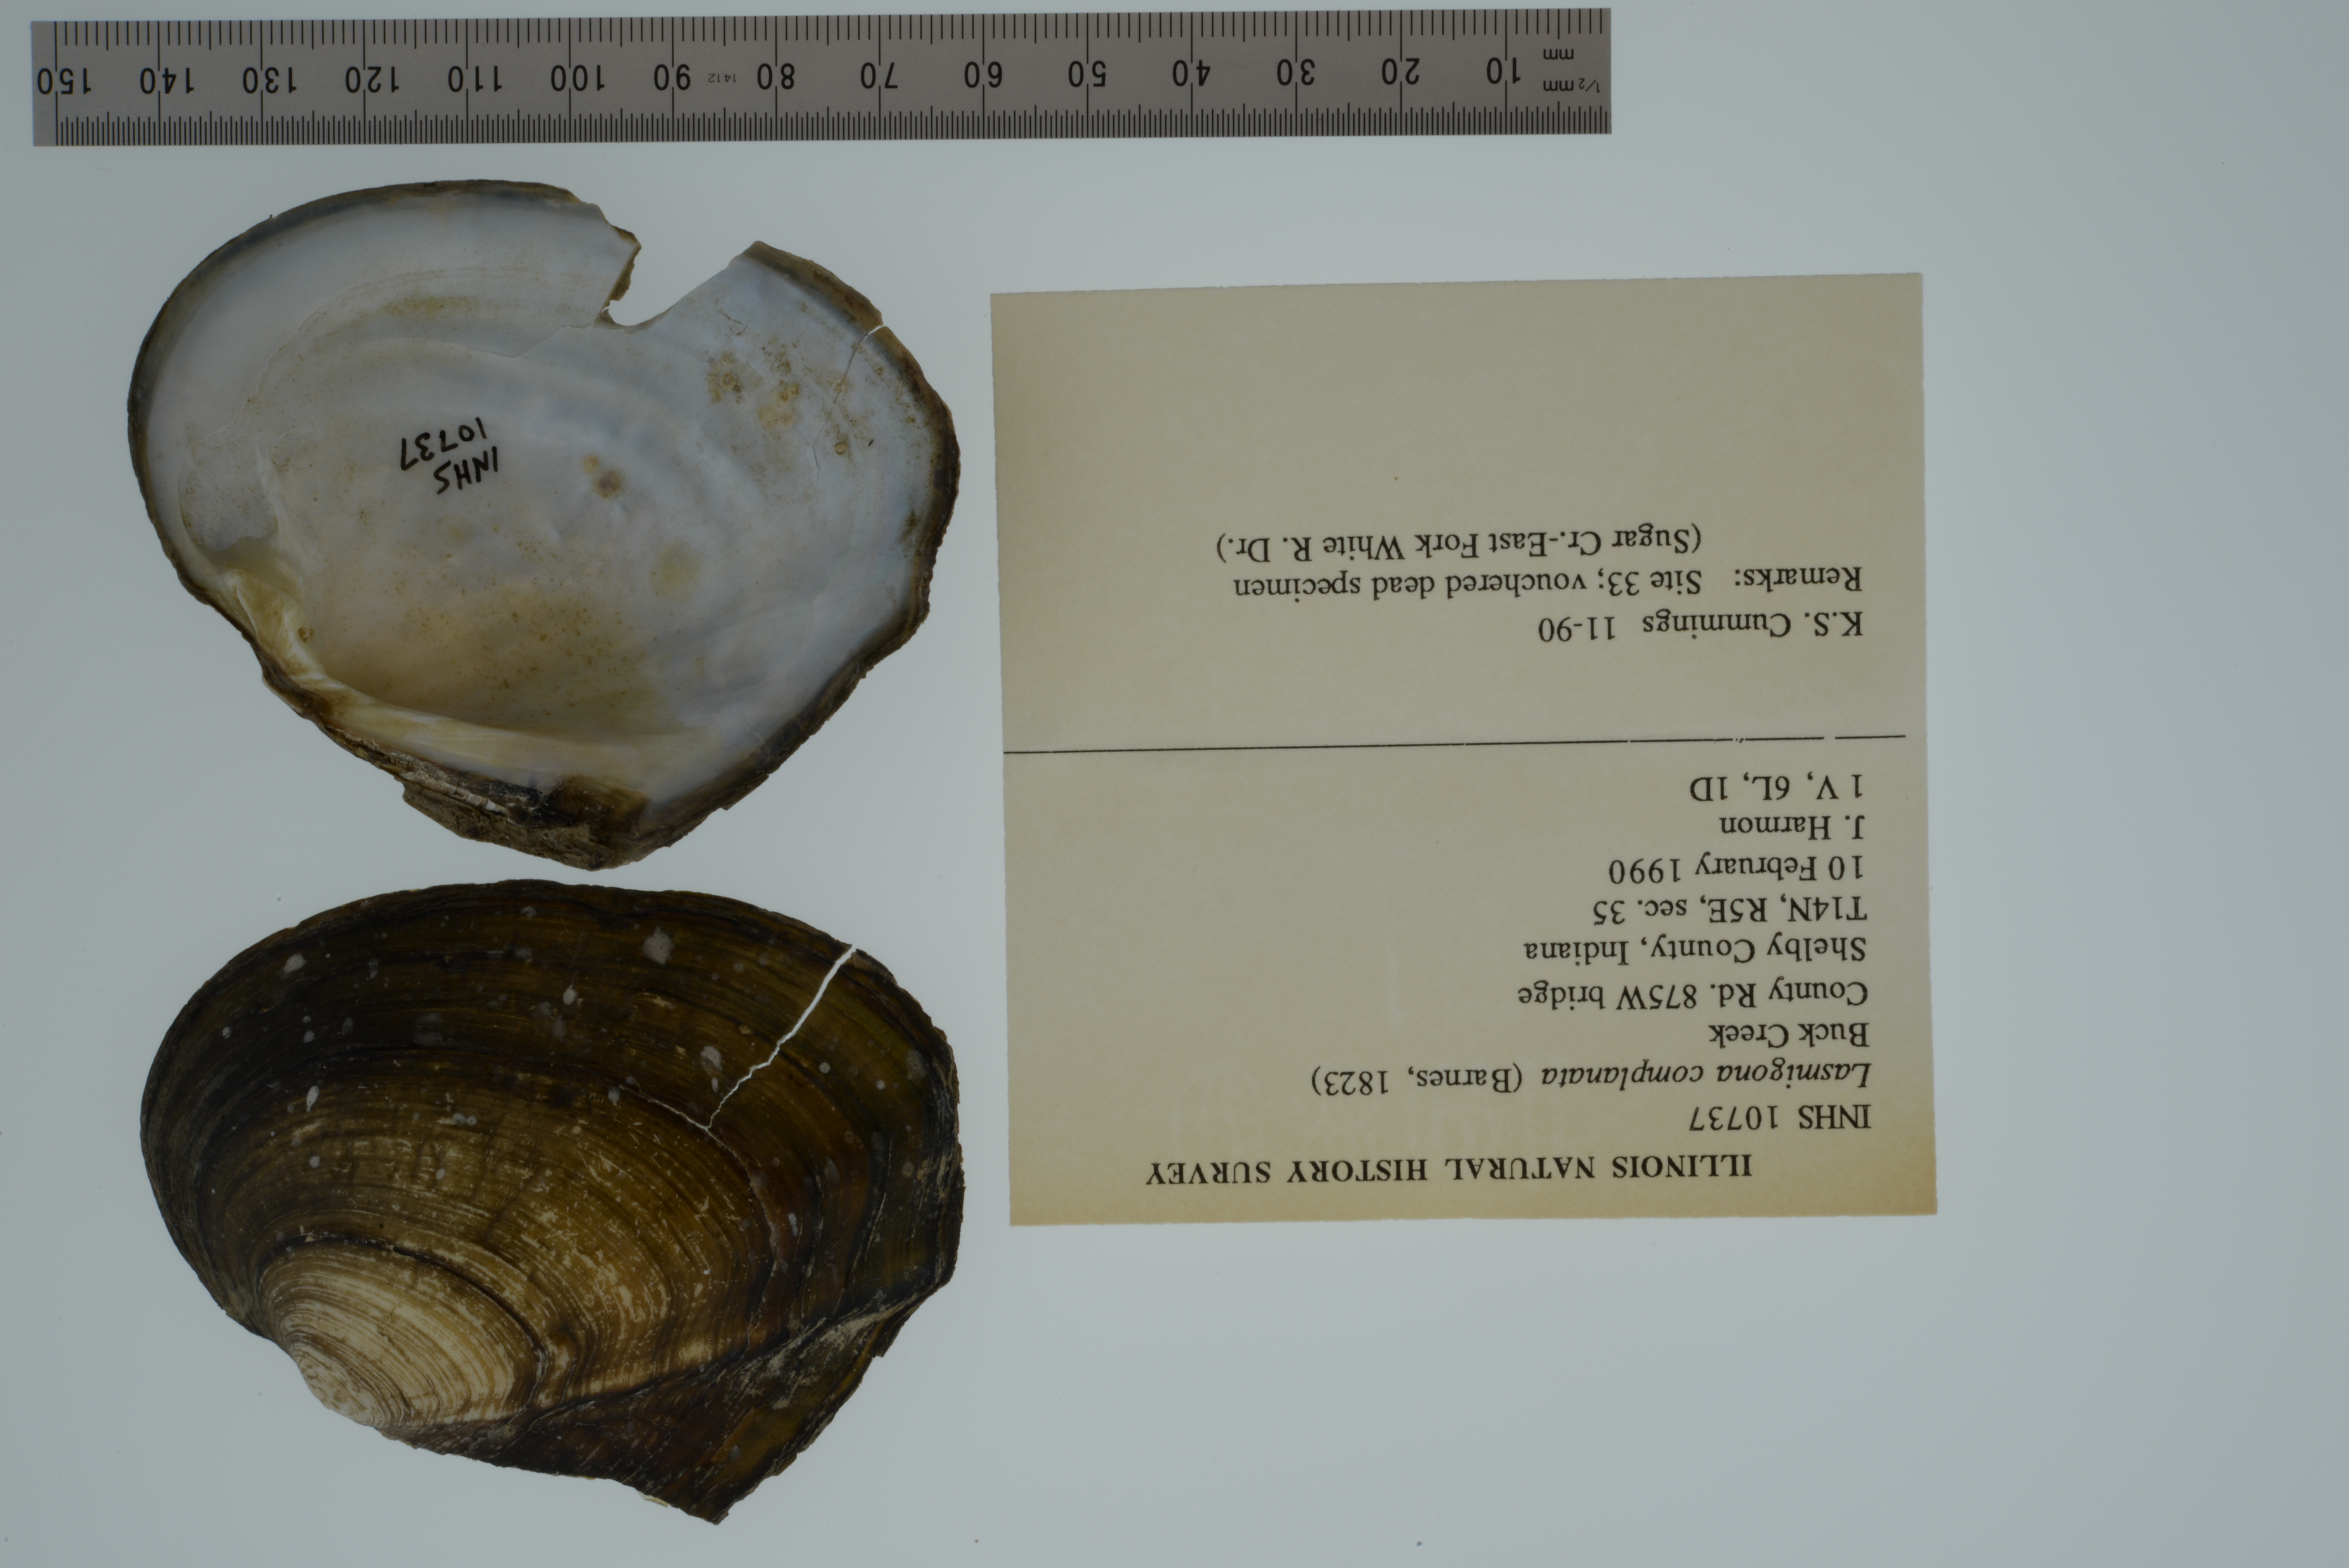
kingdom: Animalia
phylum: Mollusca
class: Bivalvia
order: Unionida
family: Unionidae
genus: Lasmigona
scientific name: Lasmigona complanata
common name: White heelsplitter
